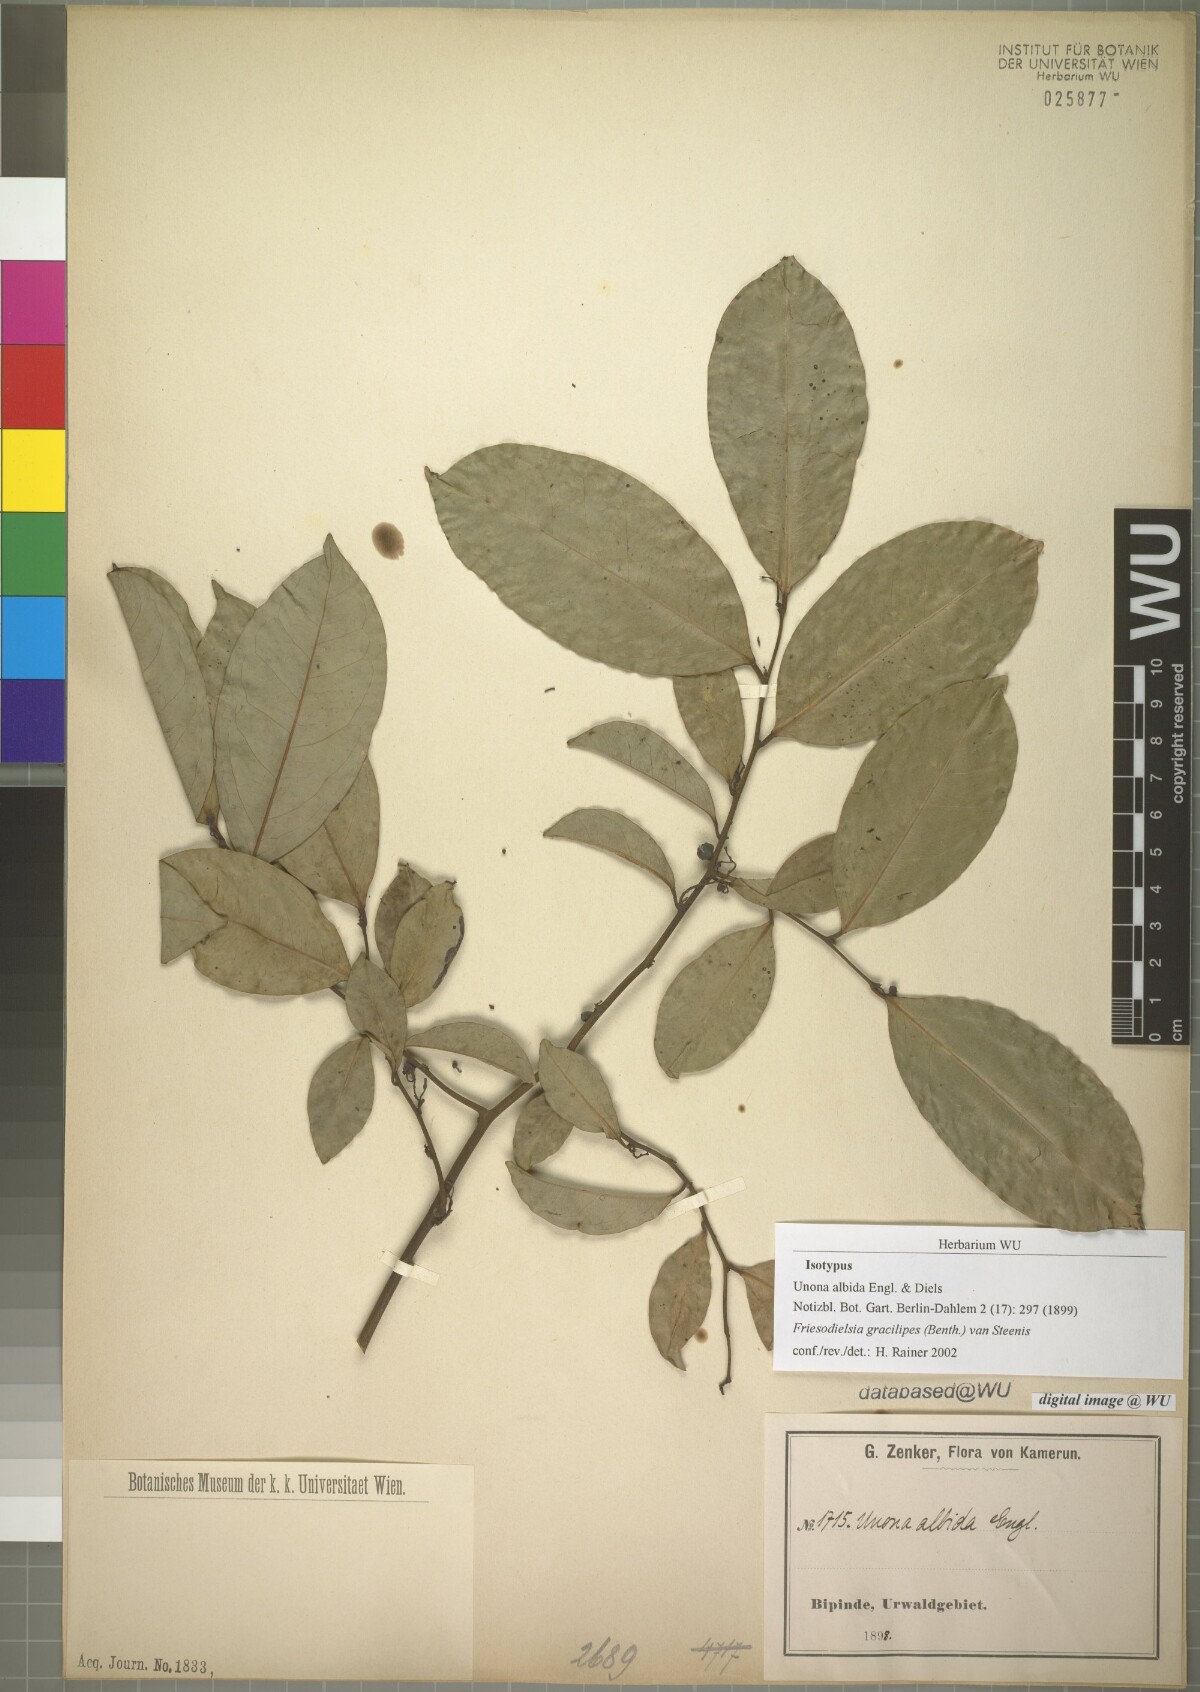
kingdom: Plantae
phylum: Tracheophyta
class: Magnoliopsida
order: Magnoliales
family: Annonaceae
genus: Friesodielsia
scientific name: Friesodielsia gracilipes
